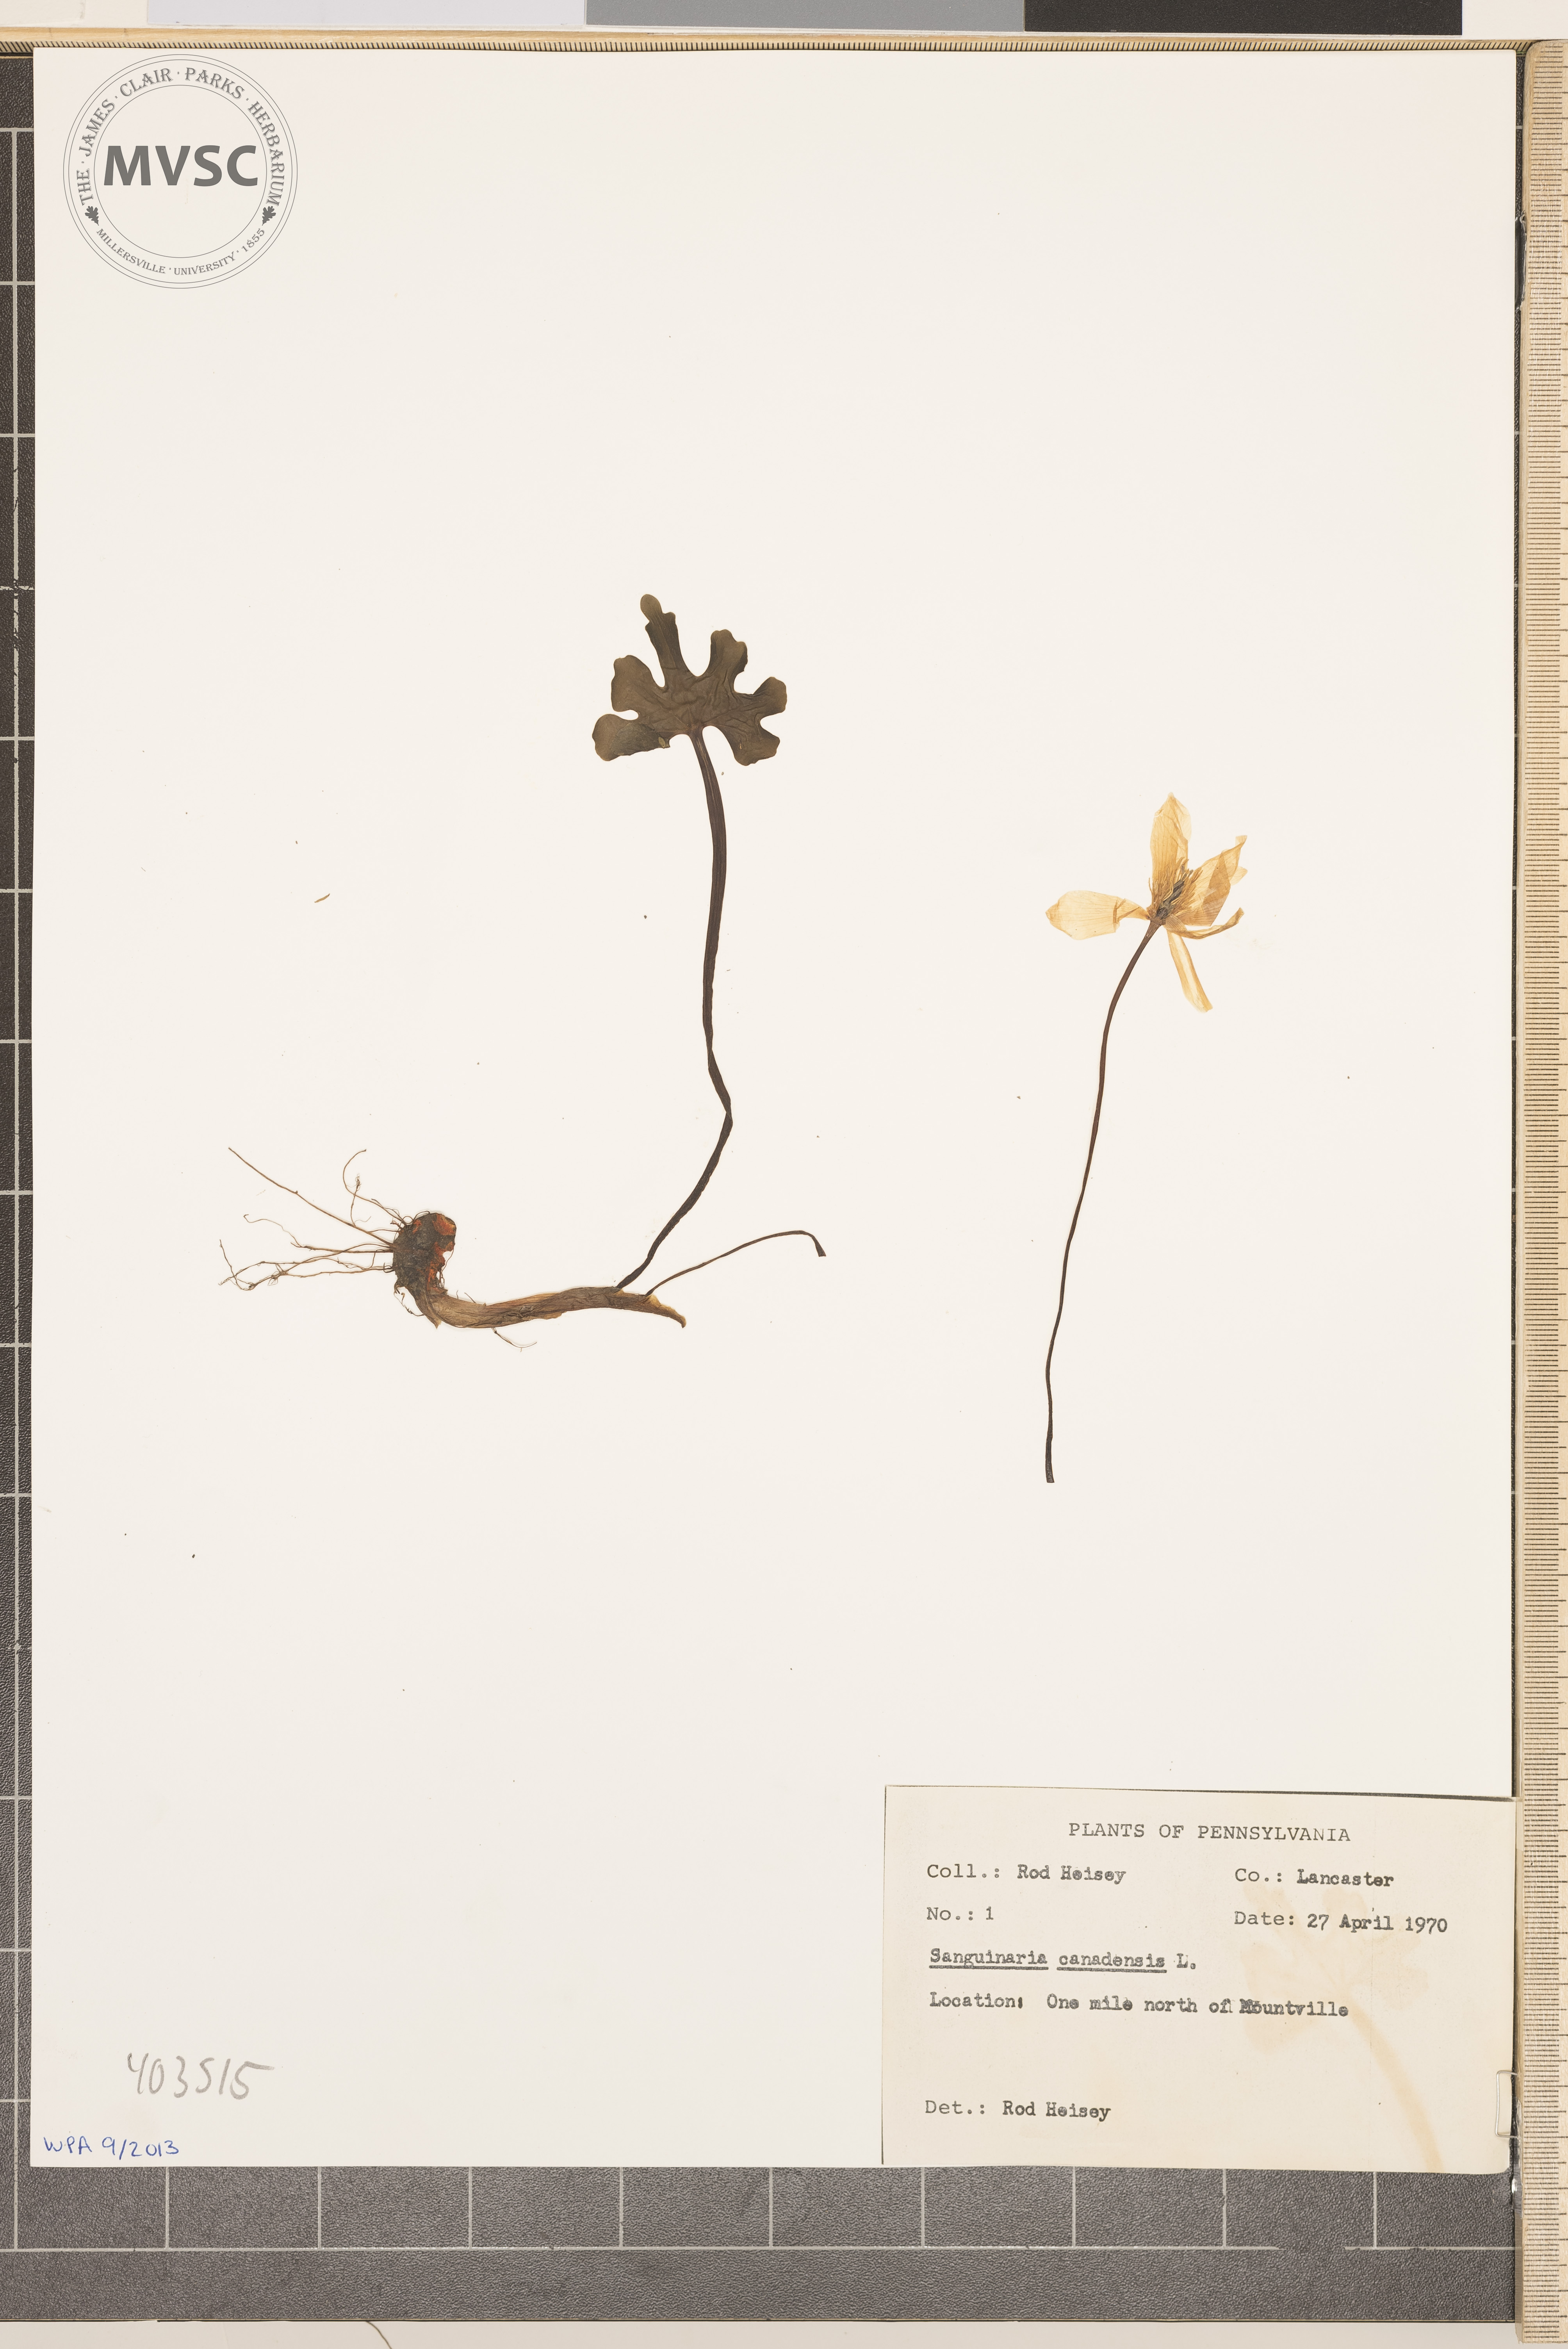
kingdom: Plantae
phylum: Tracheophyta
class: Magnoliopsida
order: Ranunculales
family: Papaveraceae
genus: Sanguinaria
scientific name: Sanguinaria canadensis
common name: Bloodroot
